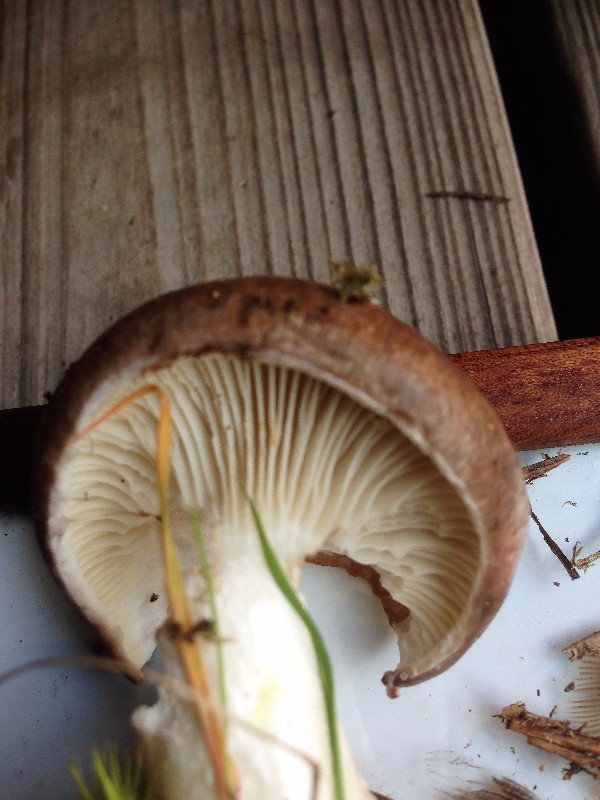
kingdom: Fungi
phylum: Basidiomycota
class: Agaricomycetes
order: Boletales
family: Gomphidiaceae
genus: Gomphidius
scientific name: Gomphidius glutinosus
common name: grå slimslør
